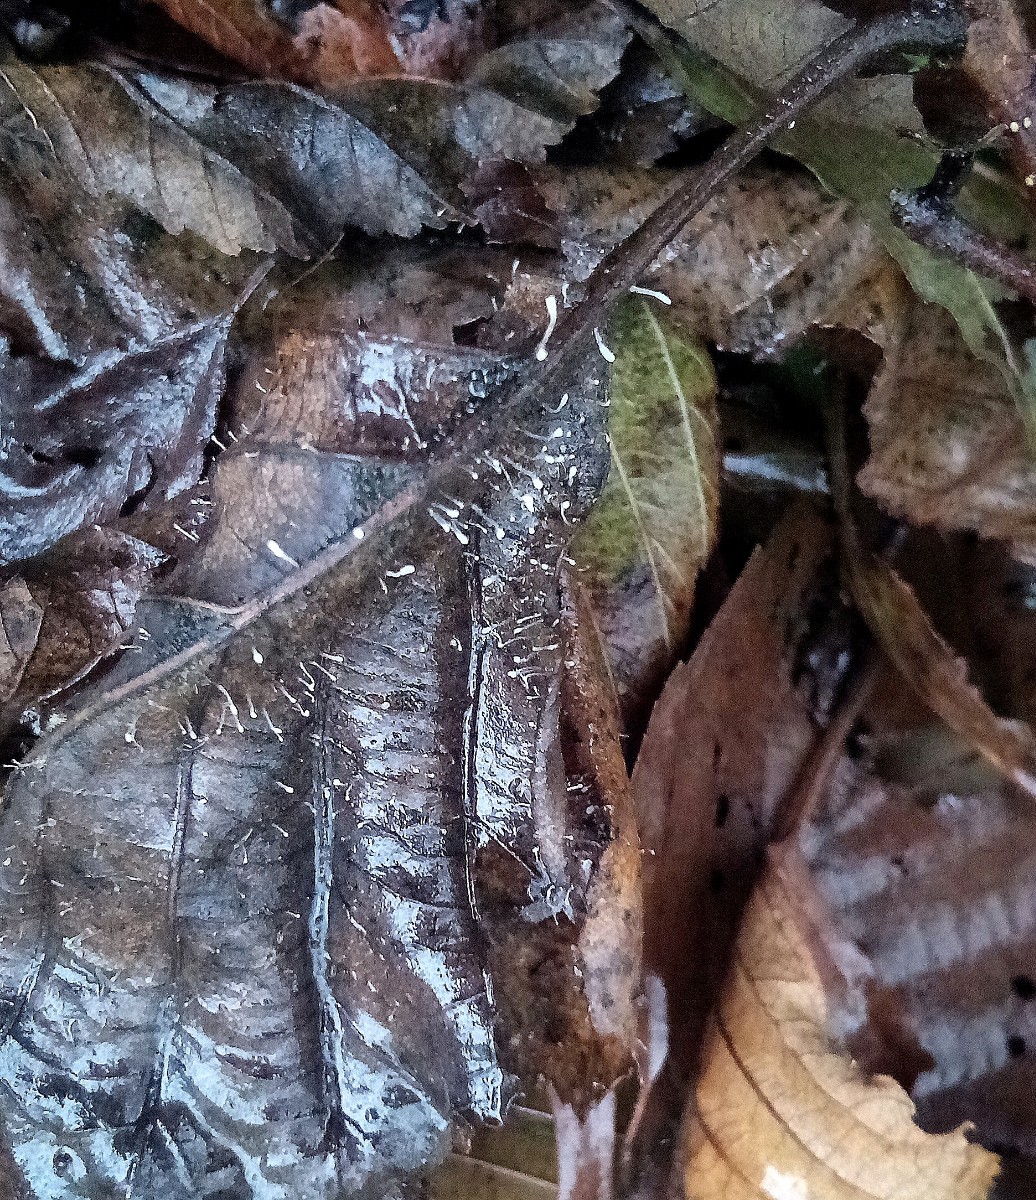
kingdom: Fungi
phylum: Basidiomycota
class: Agaricomycetes
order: Agaricales
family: Typhulaceae
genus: Typhula
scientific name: Typhula setipes
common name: liden trådkølle
